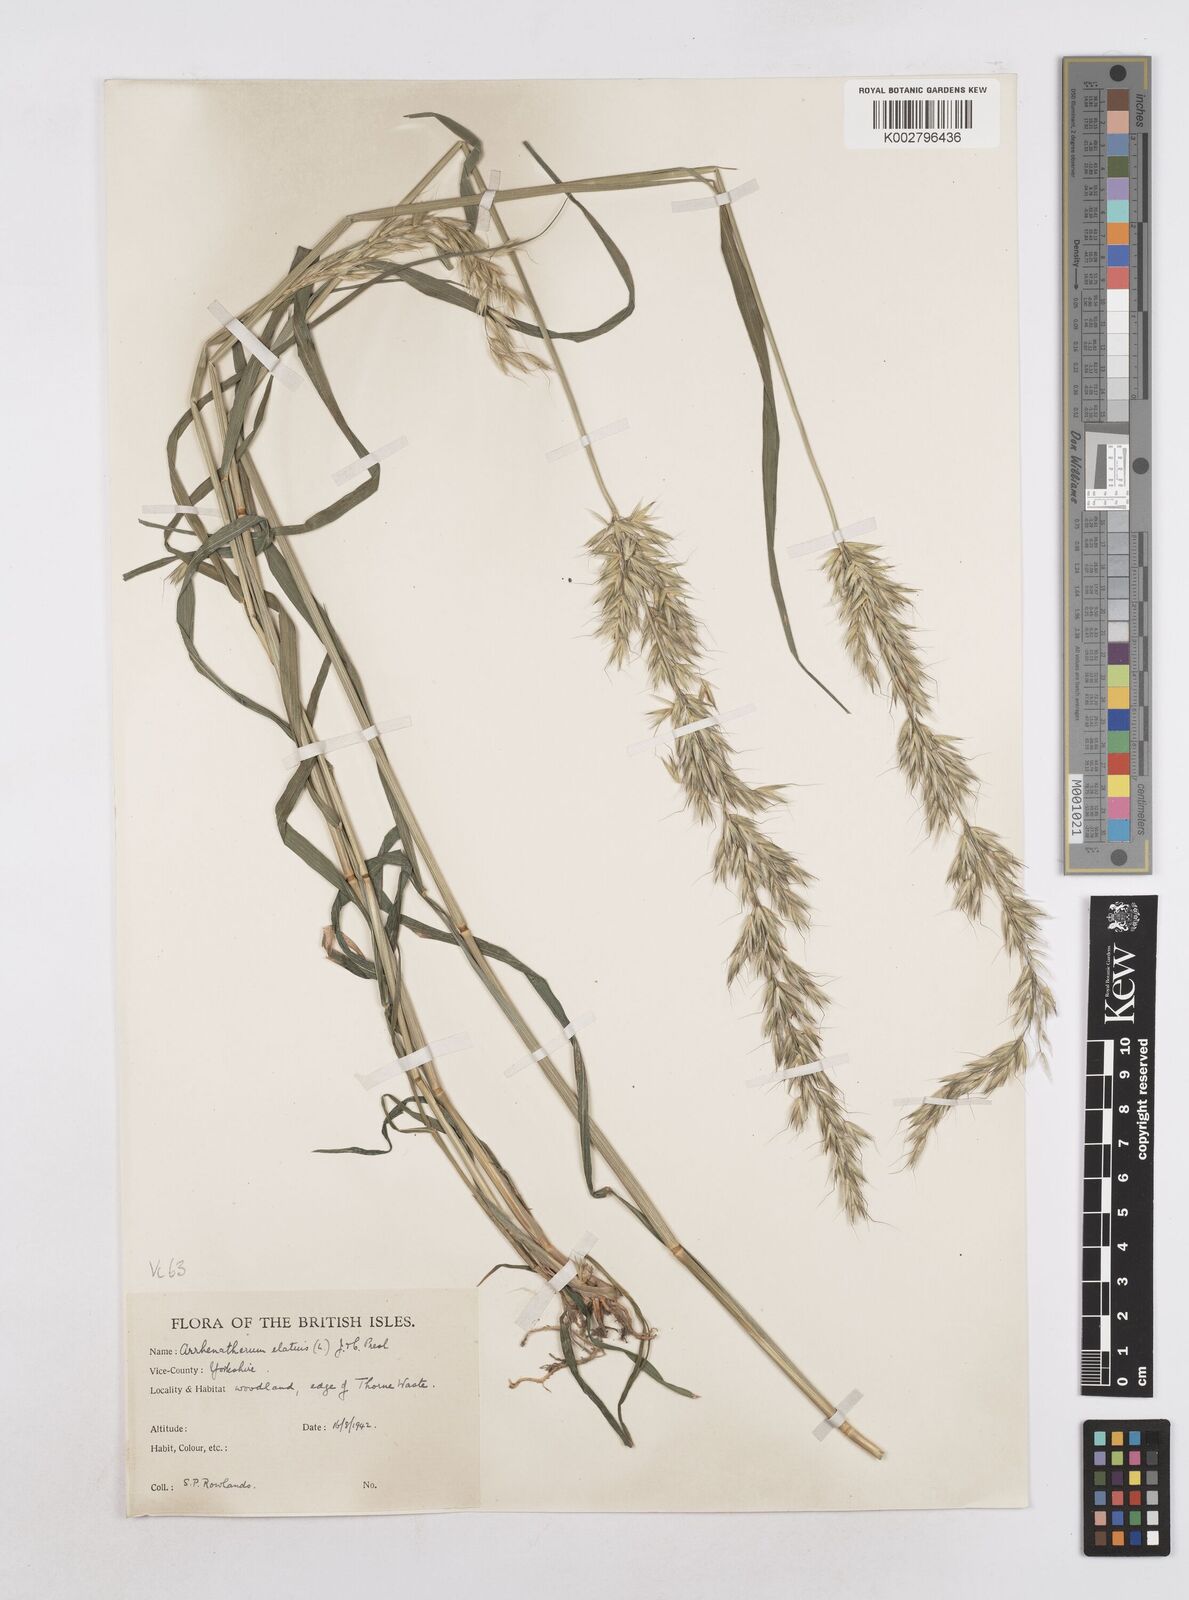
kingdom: Plantae
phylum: Tracheophyta
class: Liliopsida
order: Poales
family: Poaceae
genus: Arrhenatherum
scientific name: Arrhenatherum elatius
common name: Tall oatgrass
